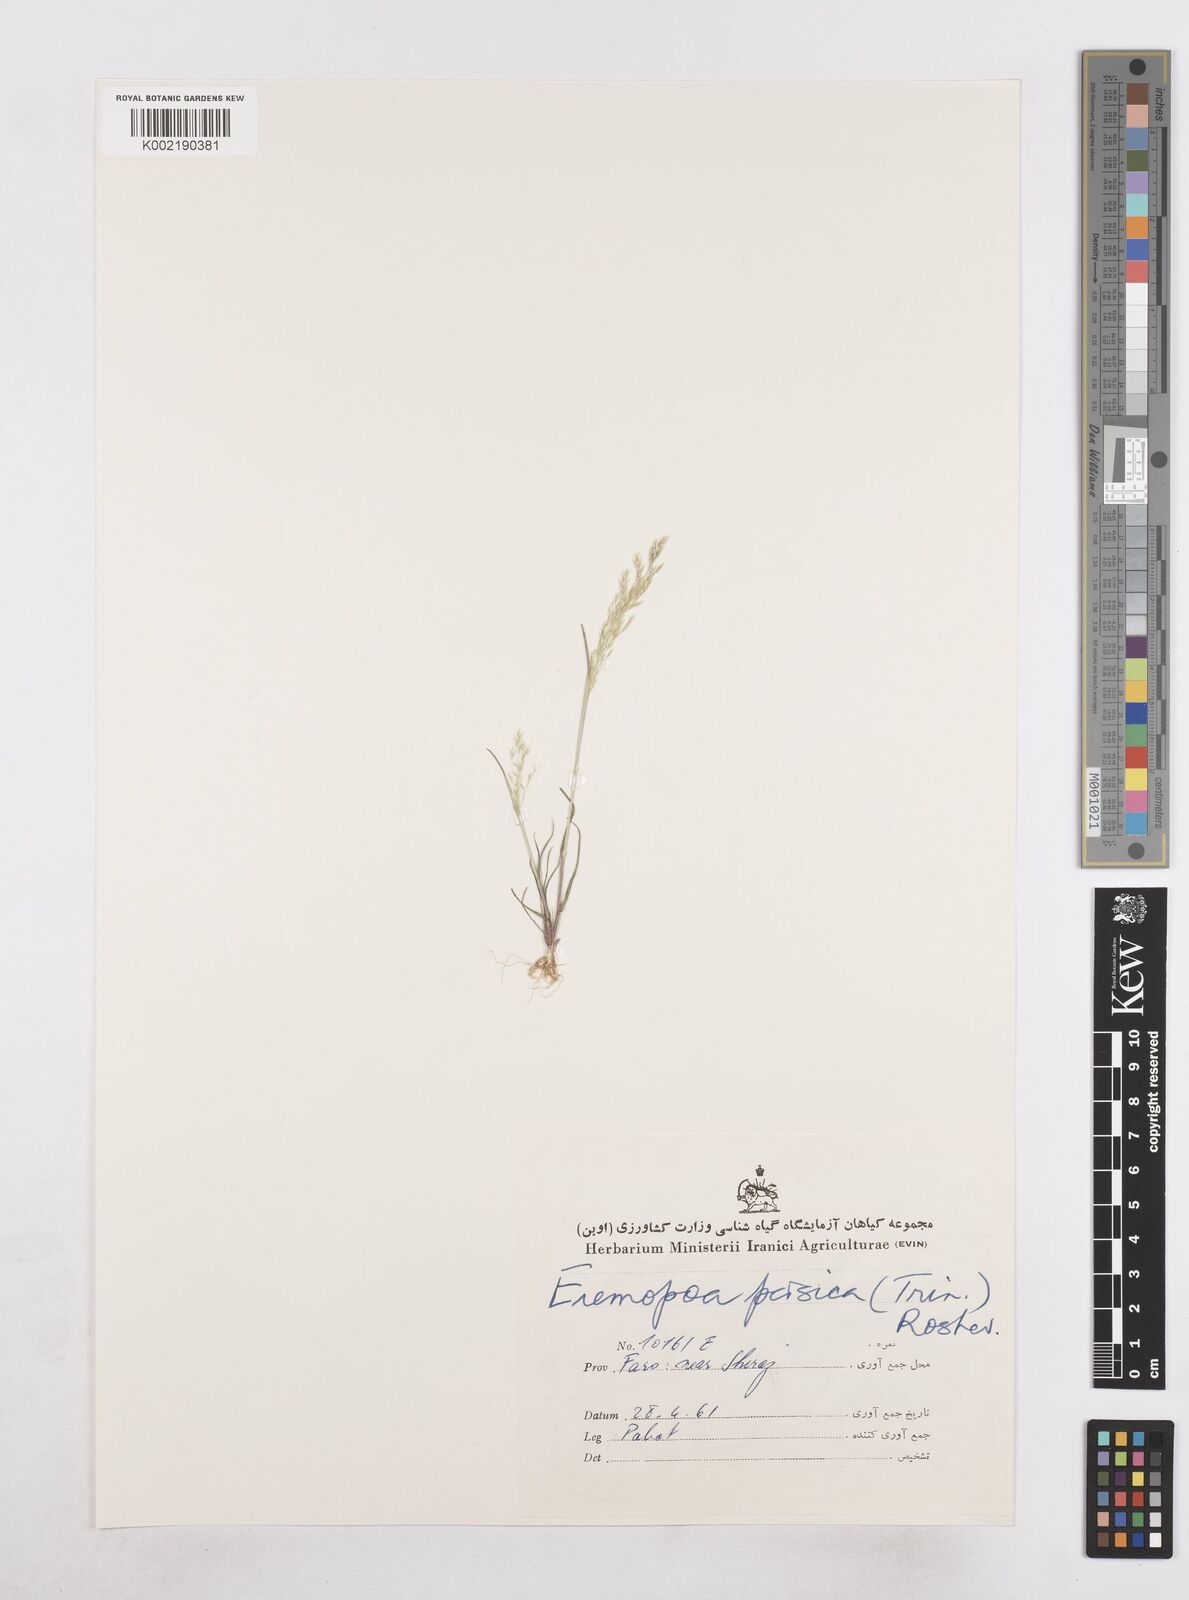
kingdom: Plantae
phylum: Tracheophyta
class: Liliopsida
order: Poales
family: Poaceae
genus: Poa
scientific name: Poa persica
